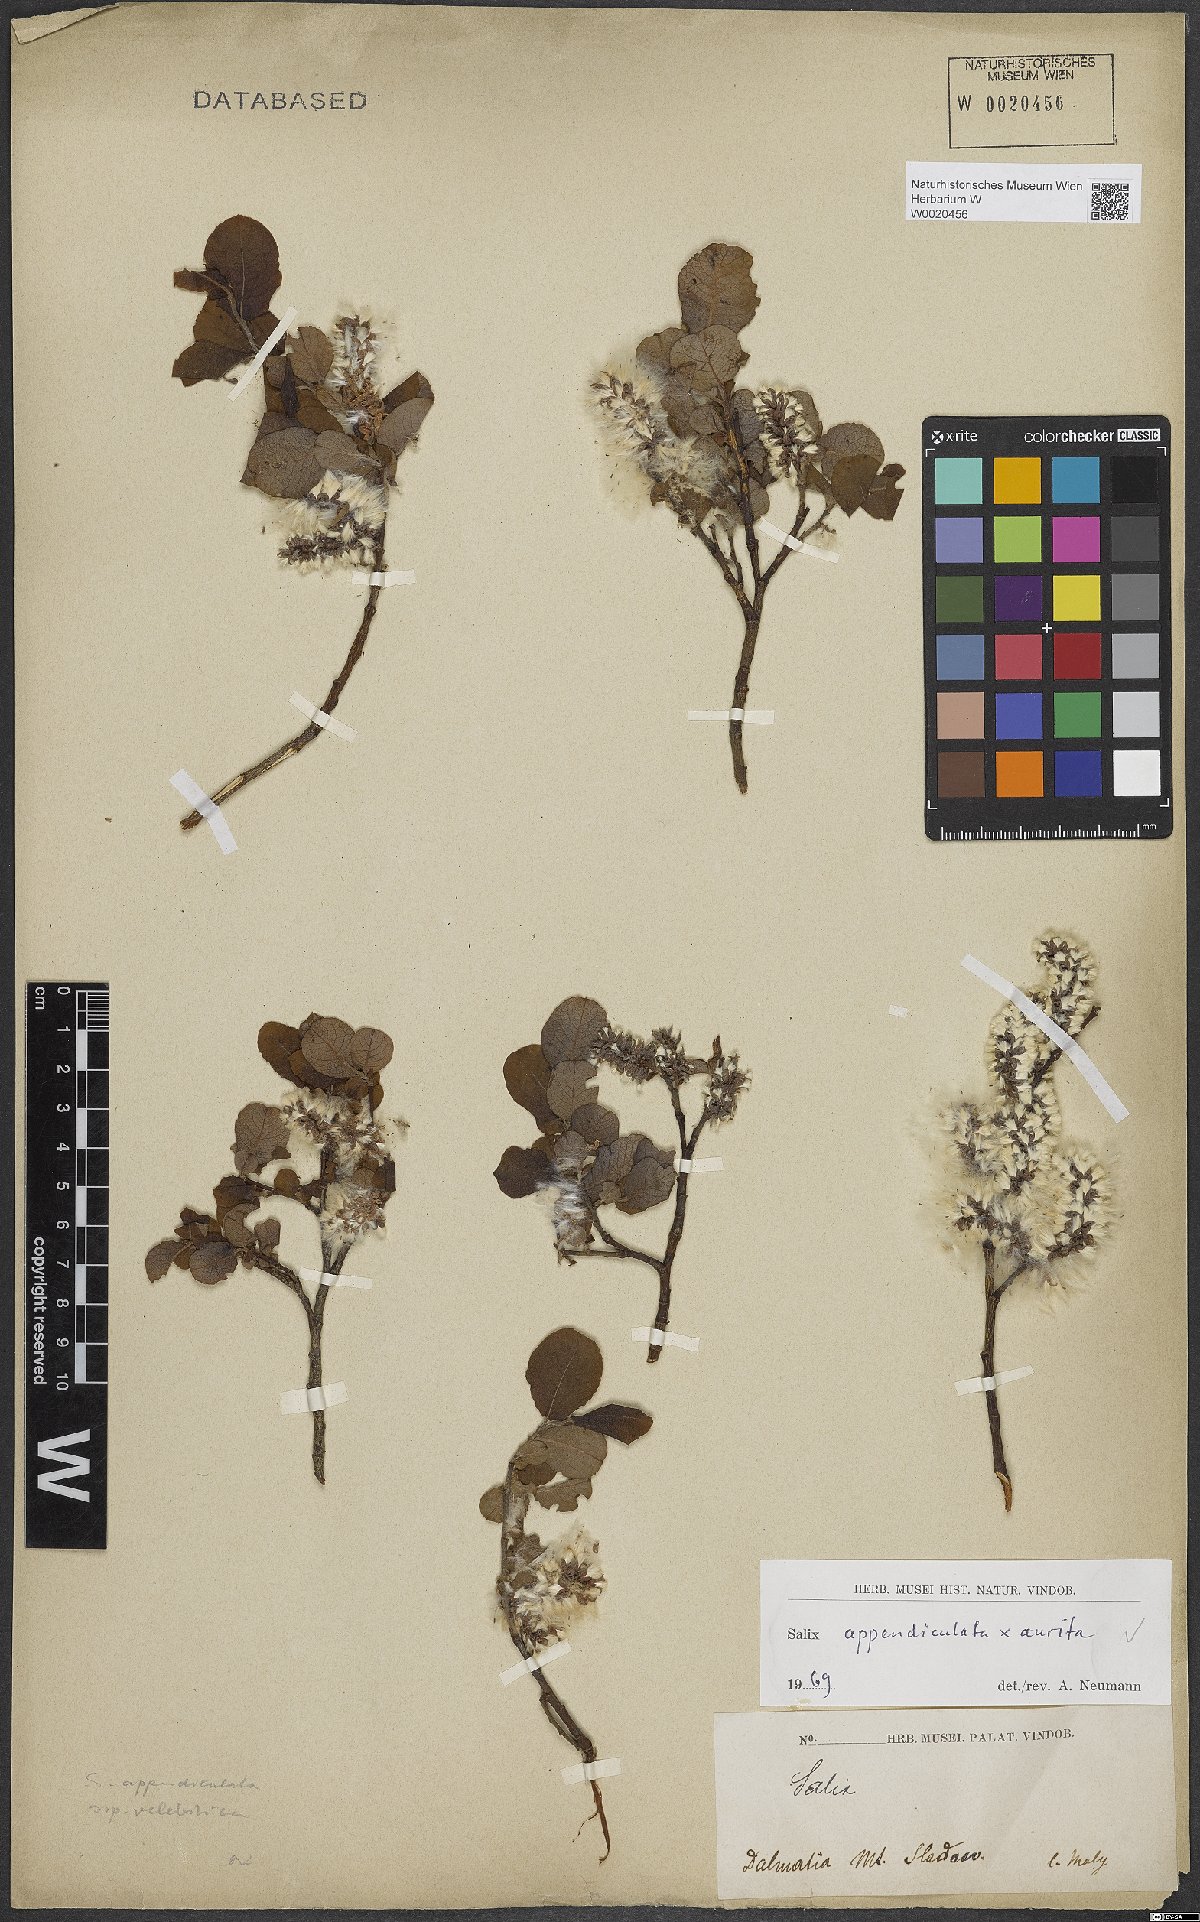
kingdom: Plantae
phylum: Tracheophyta
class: Magnoliopsida
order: Malpighiales
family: Salicaceae
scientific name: Salicaceae
